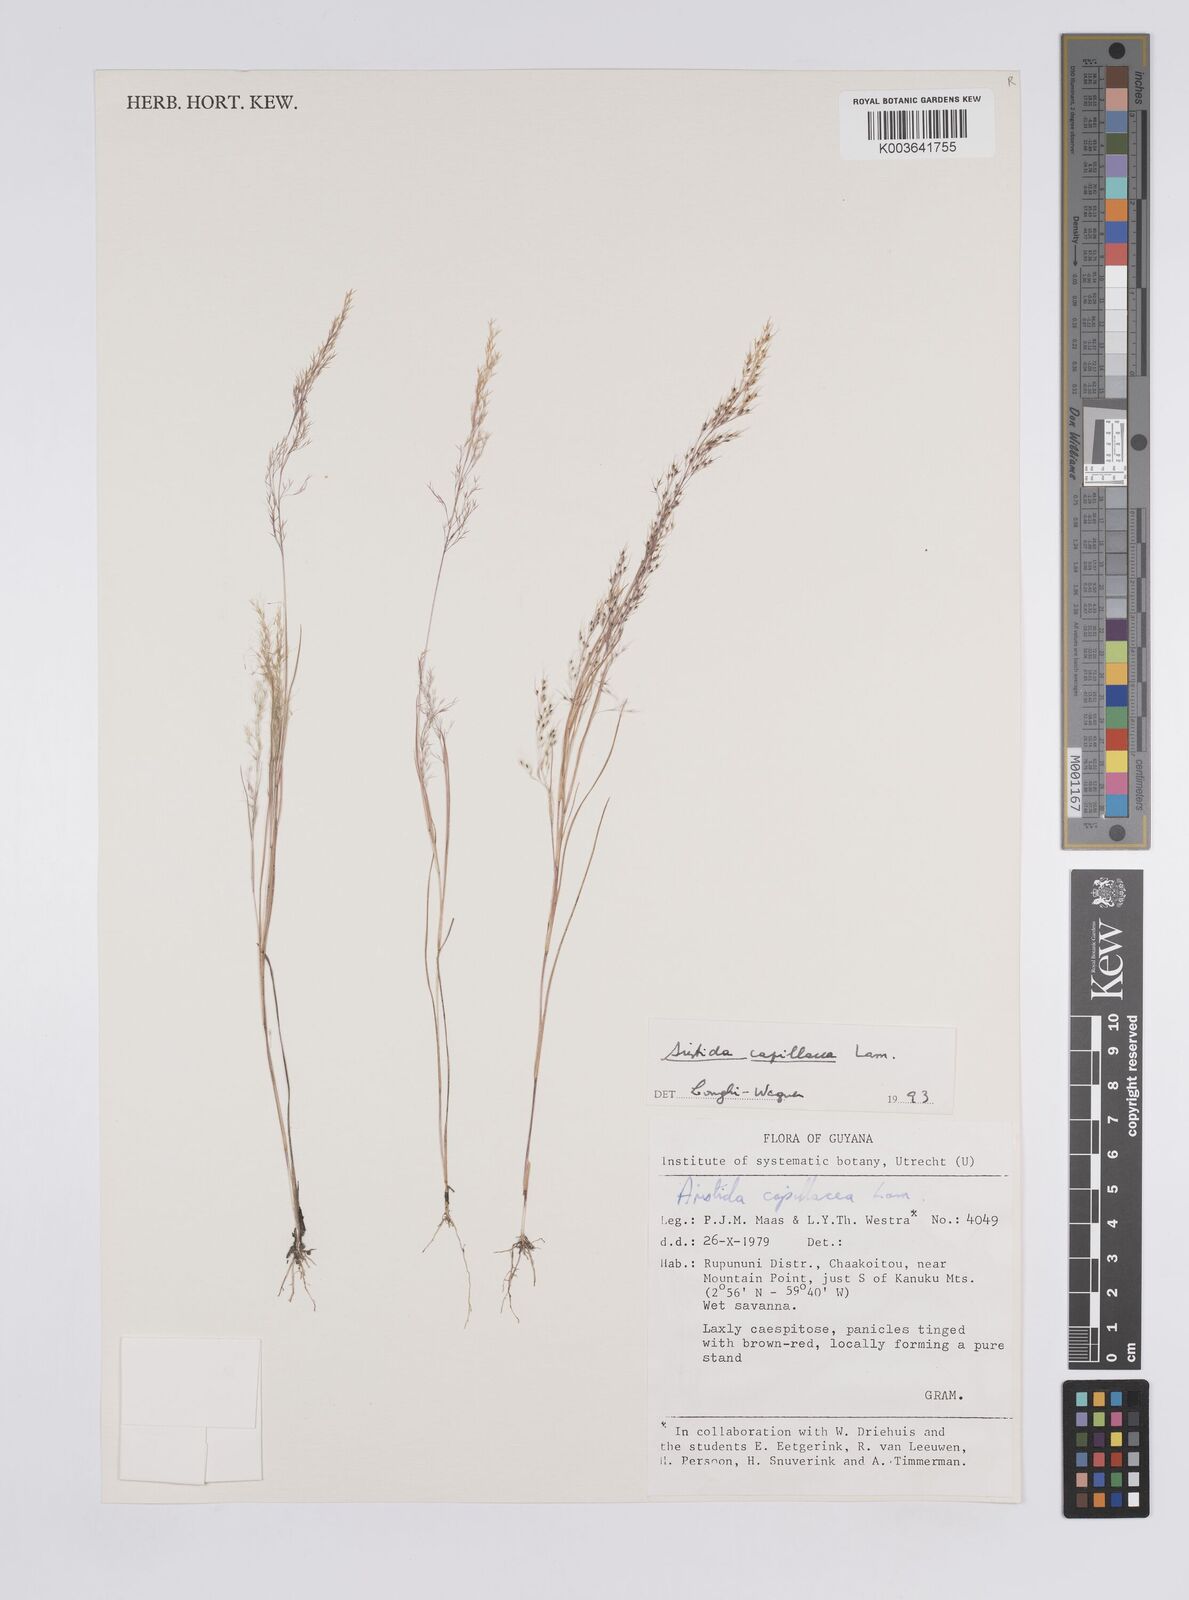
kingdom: Plantae
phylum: Tracheophyta
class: Liliopsida
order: Poales
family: Poaceae
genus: Aristida
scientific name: Aristida capillacea
